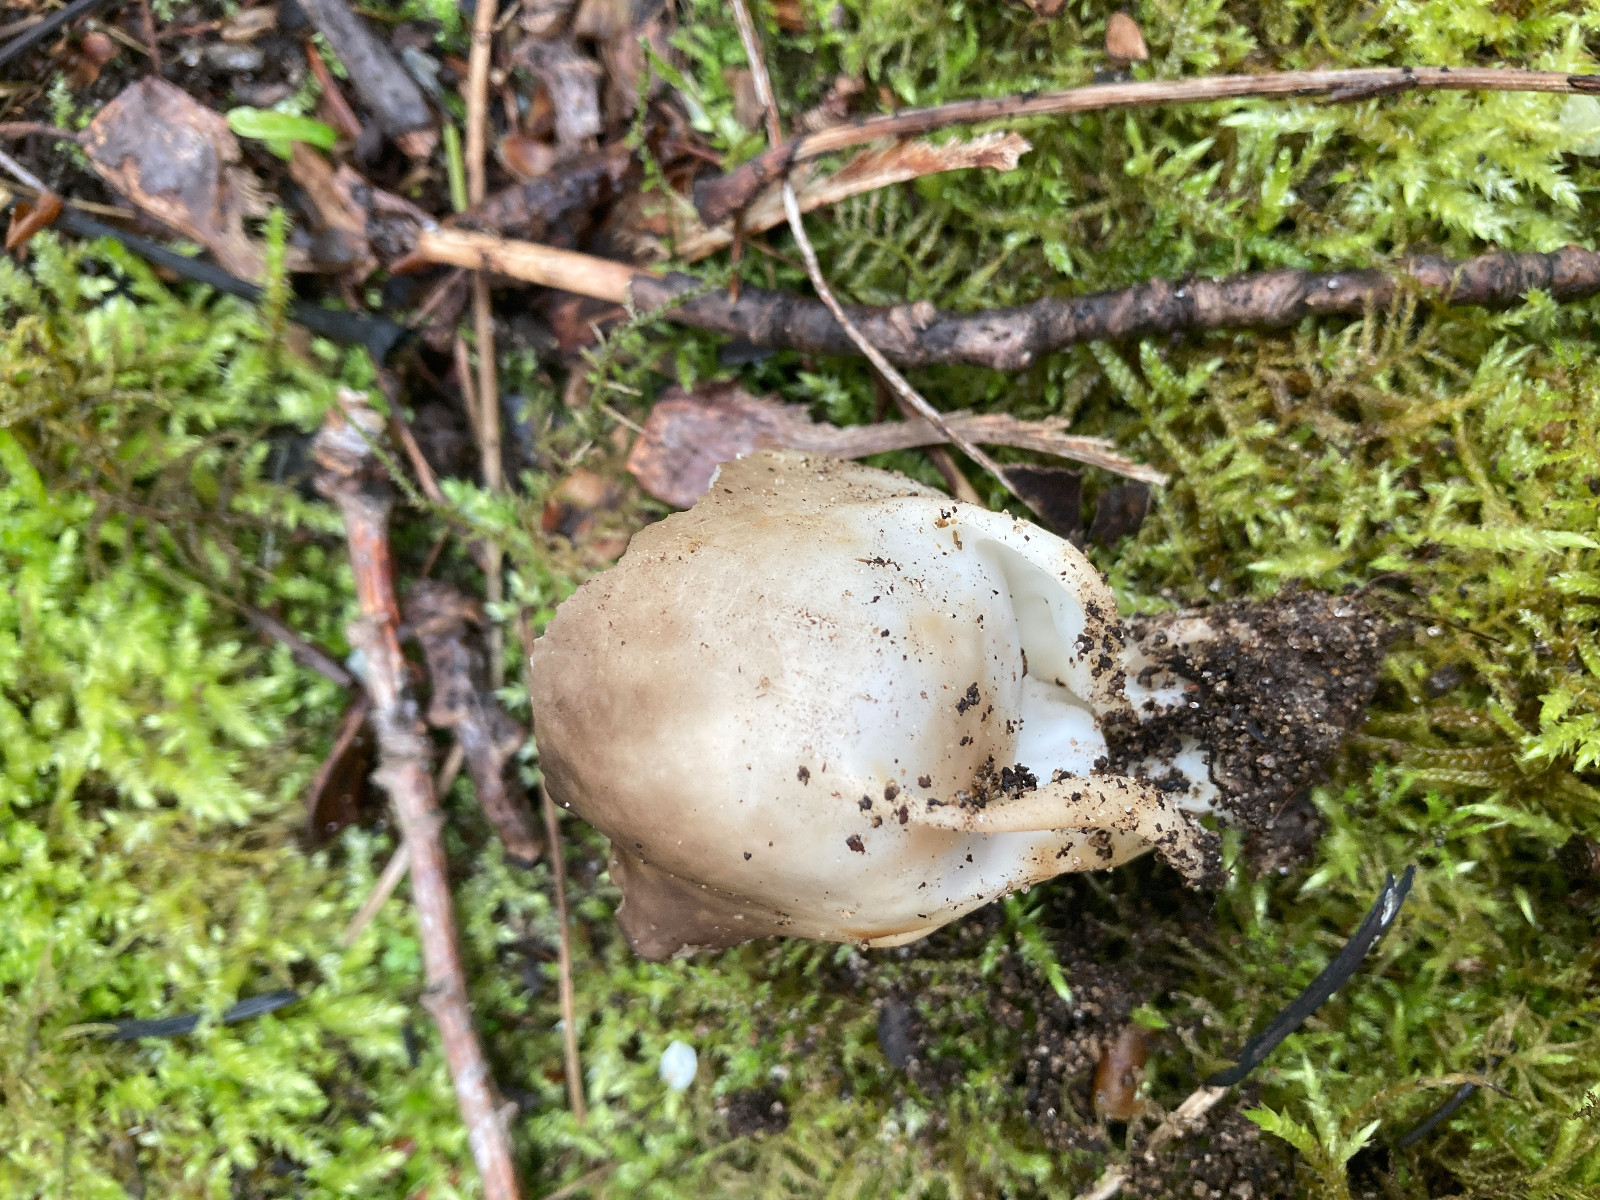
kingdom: Fungi
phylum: Ascomycota
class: Pezizomycetes
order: Pezizales
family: Helvellaceae
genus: Helvella
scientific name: Helvella acetabulum
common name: pokal-foldhat
